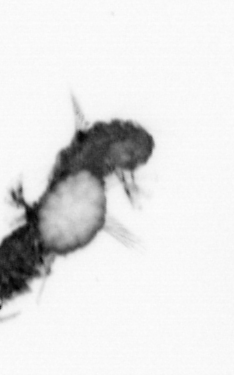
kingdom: Animalia
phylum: Annelida
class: Polychaeta
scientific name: Polychaeta
